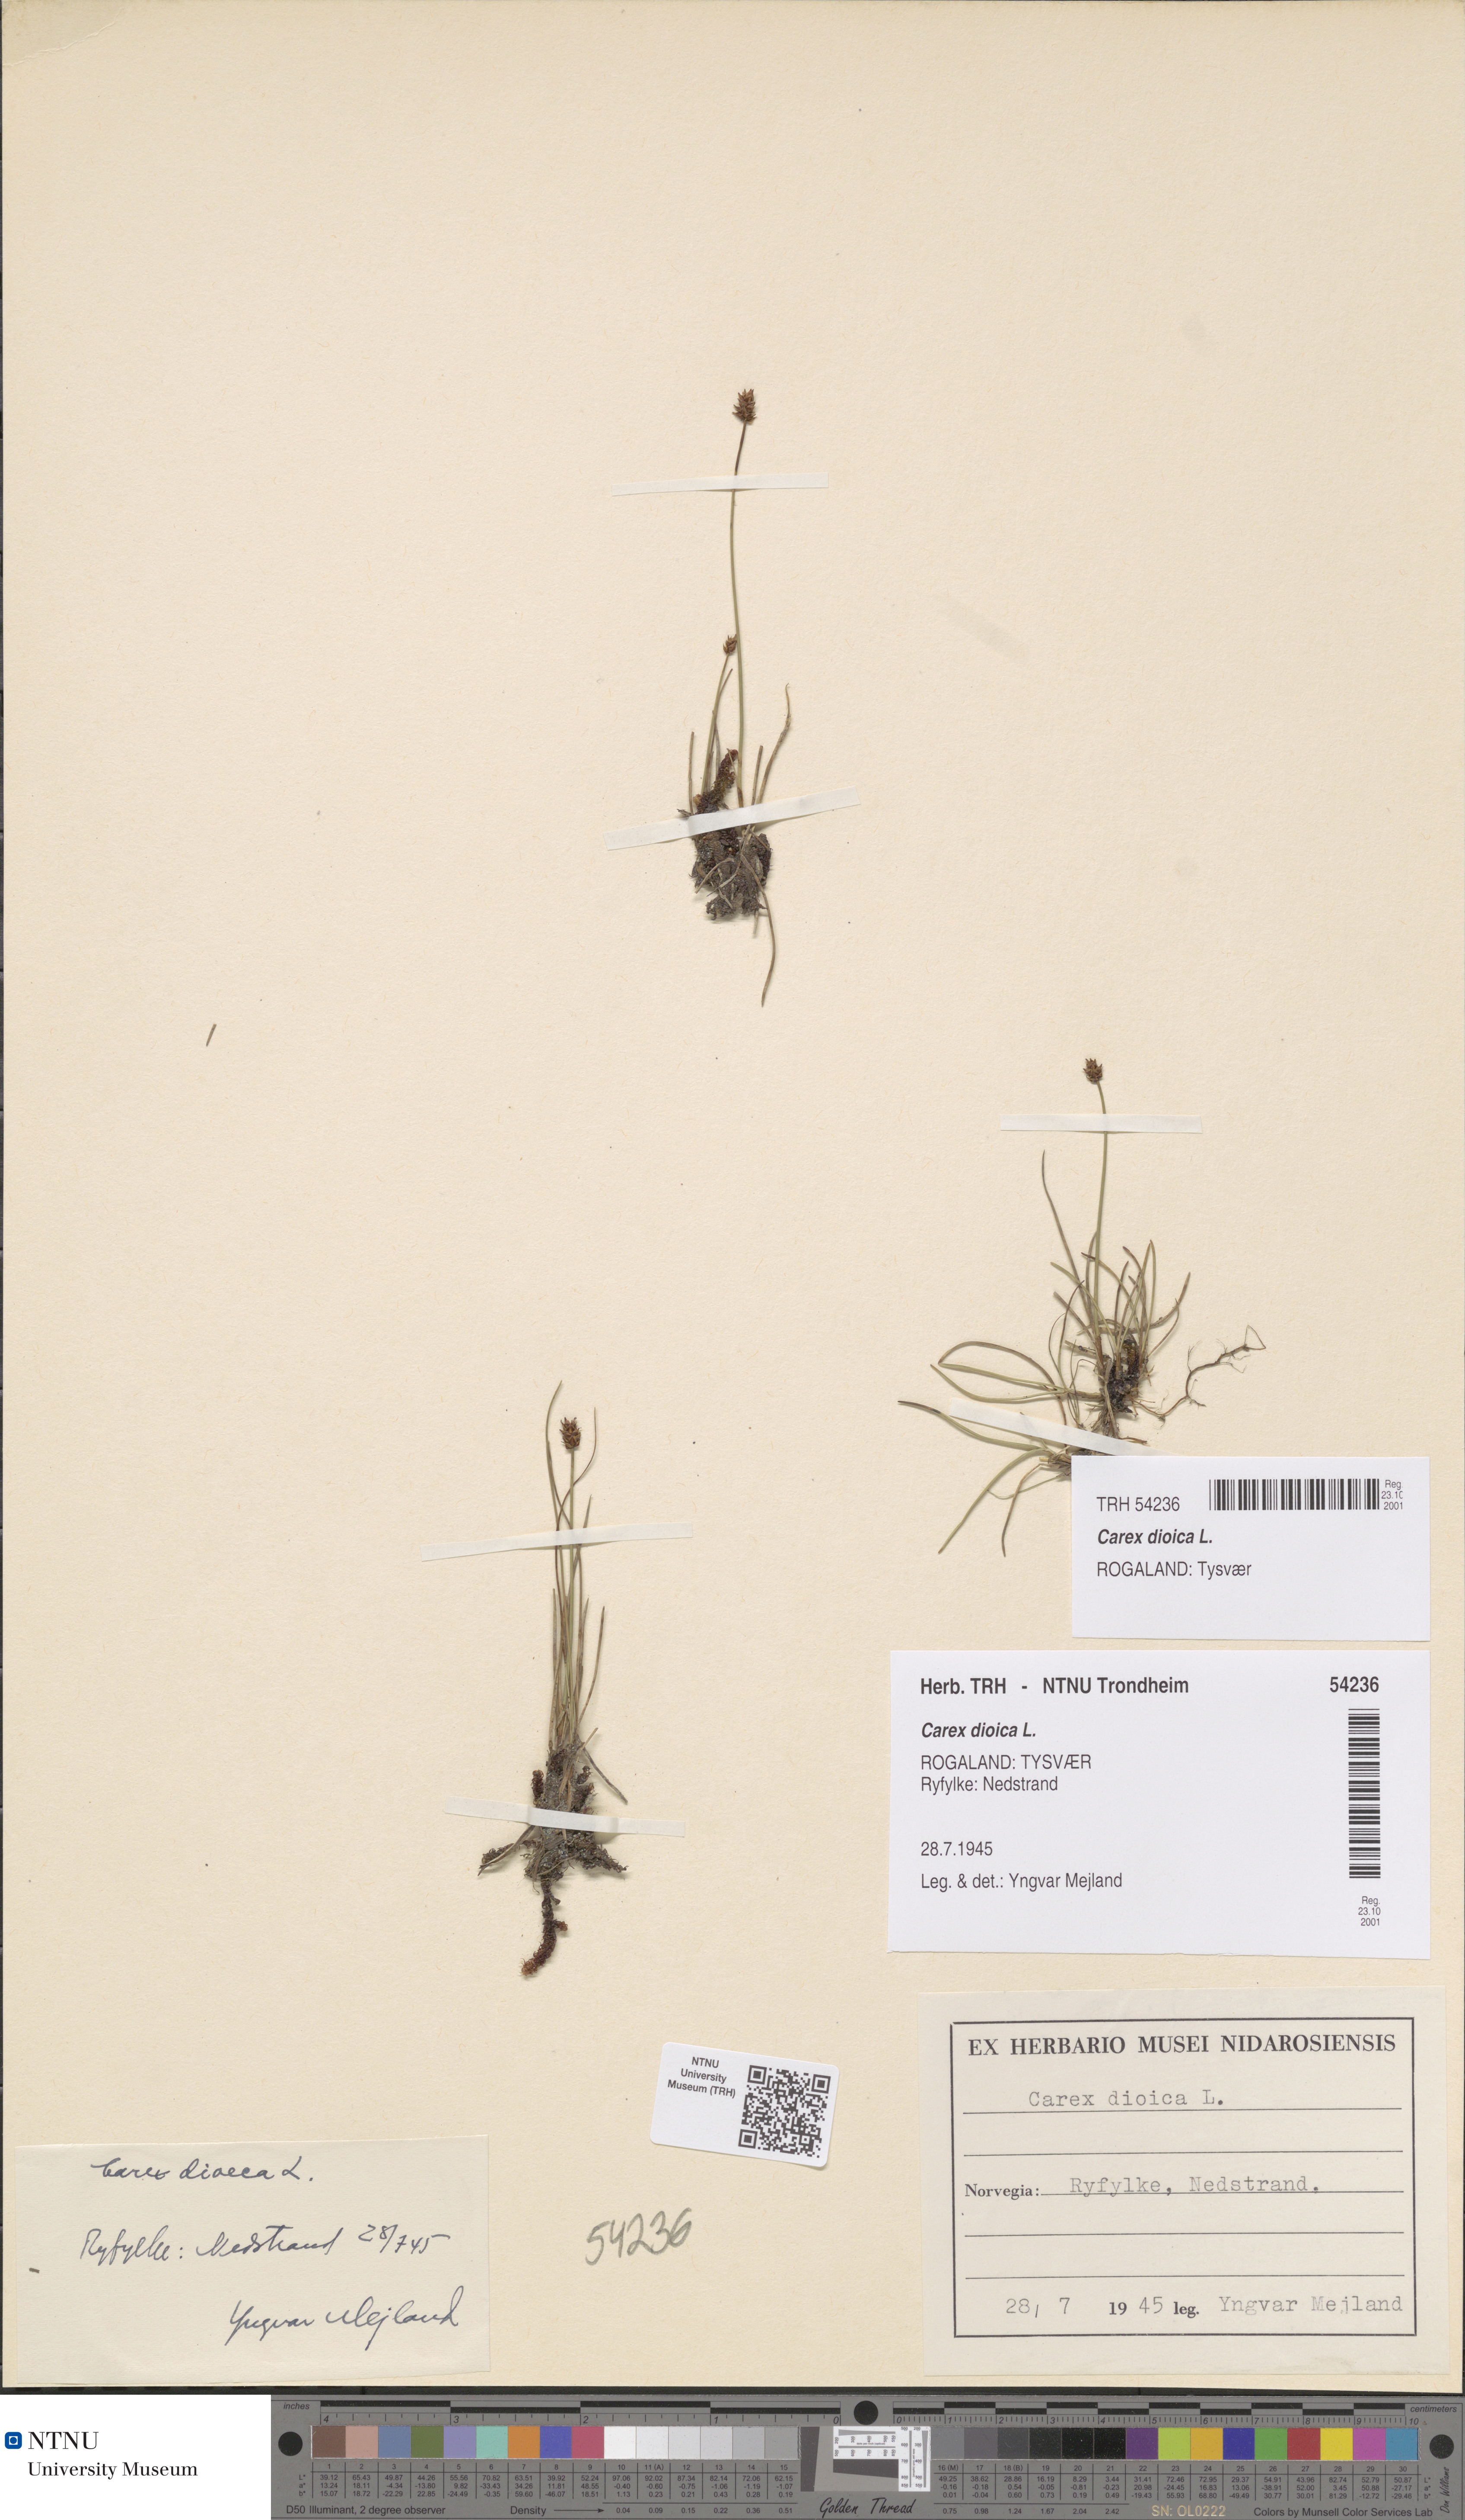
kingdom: Plantae
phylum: Tracheophyta
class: Liliopsida
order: Poales
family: Cyperaceae
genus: Carex
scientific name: Carex dioica
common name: Dioecious sedge
